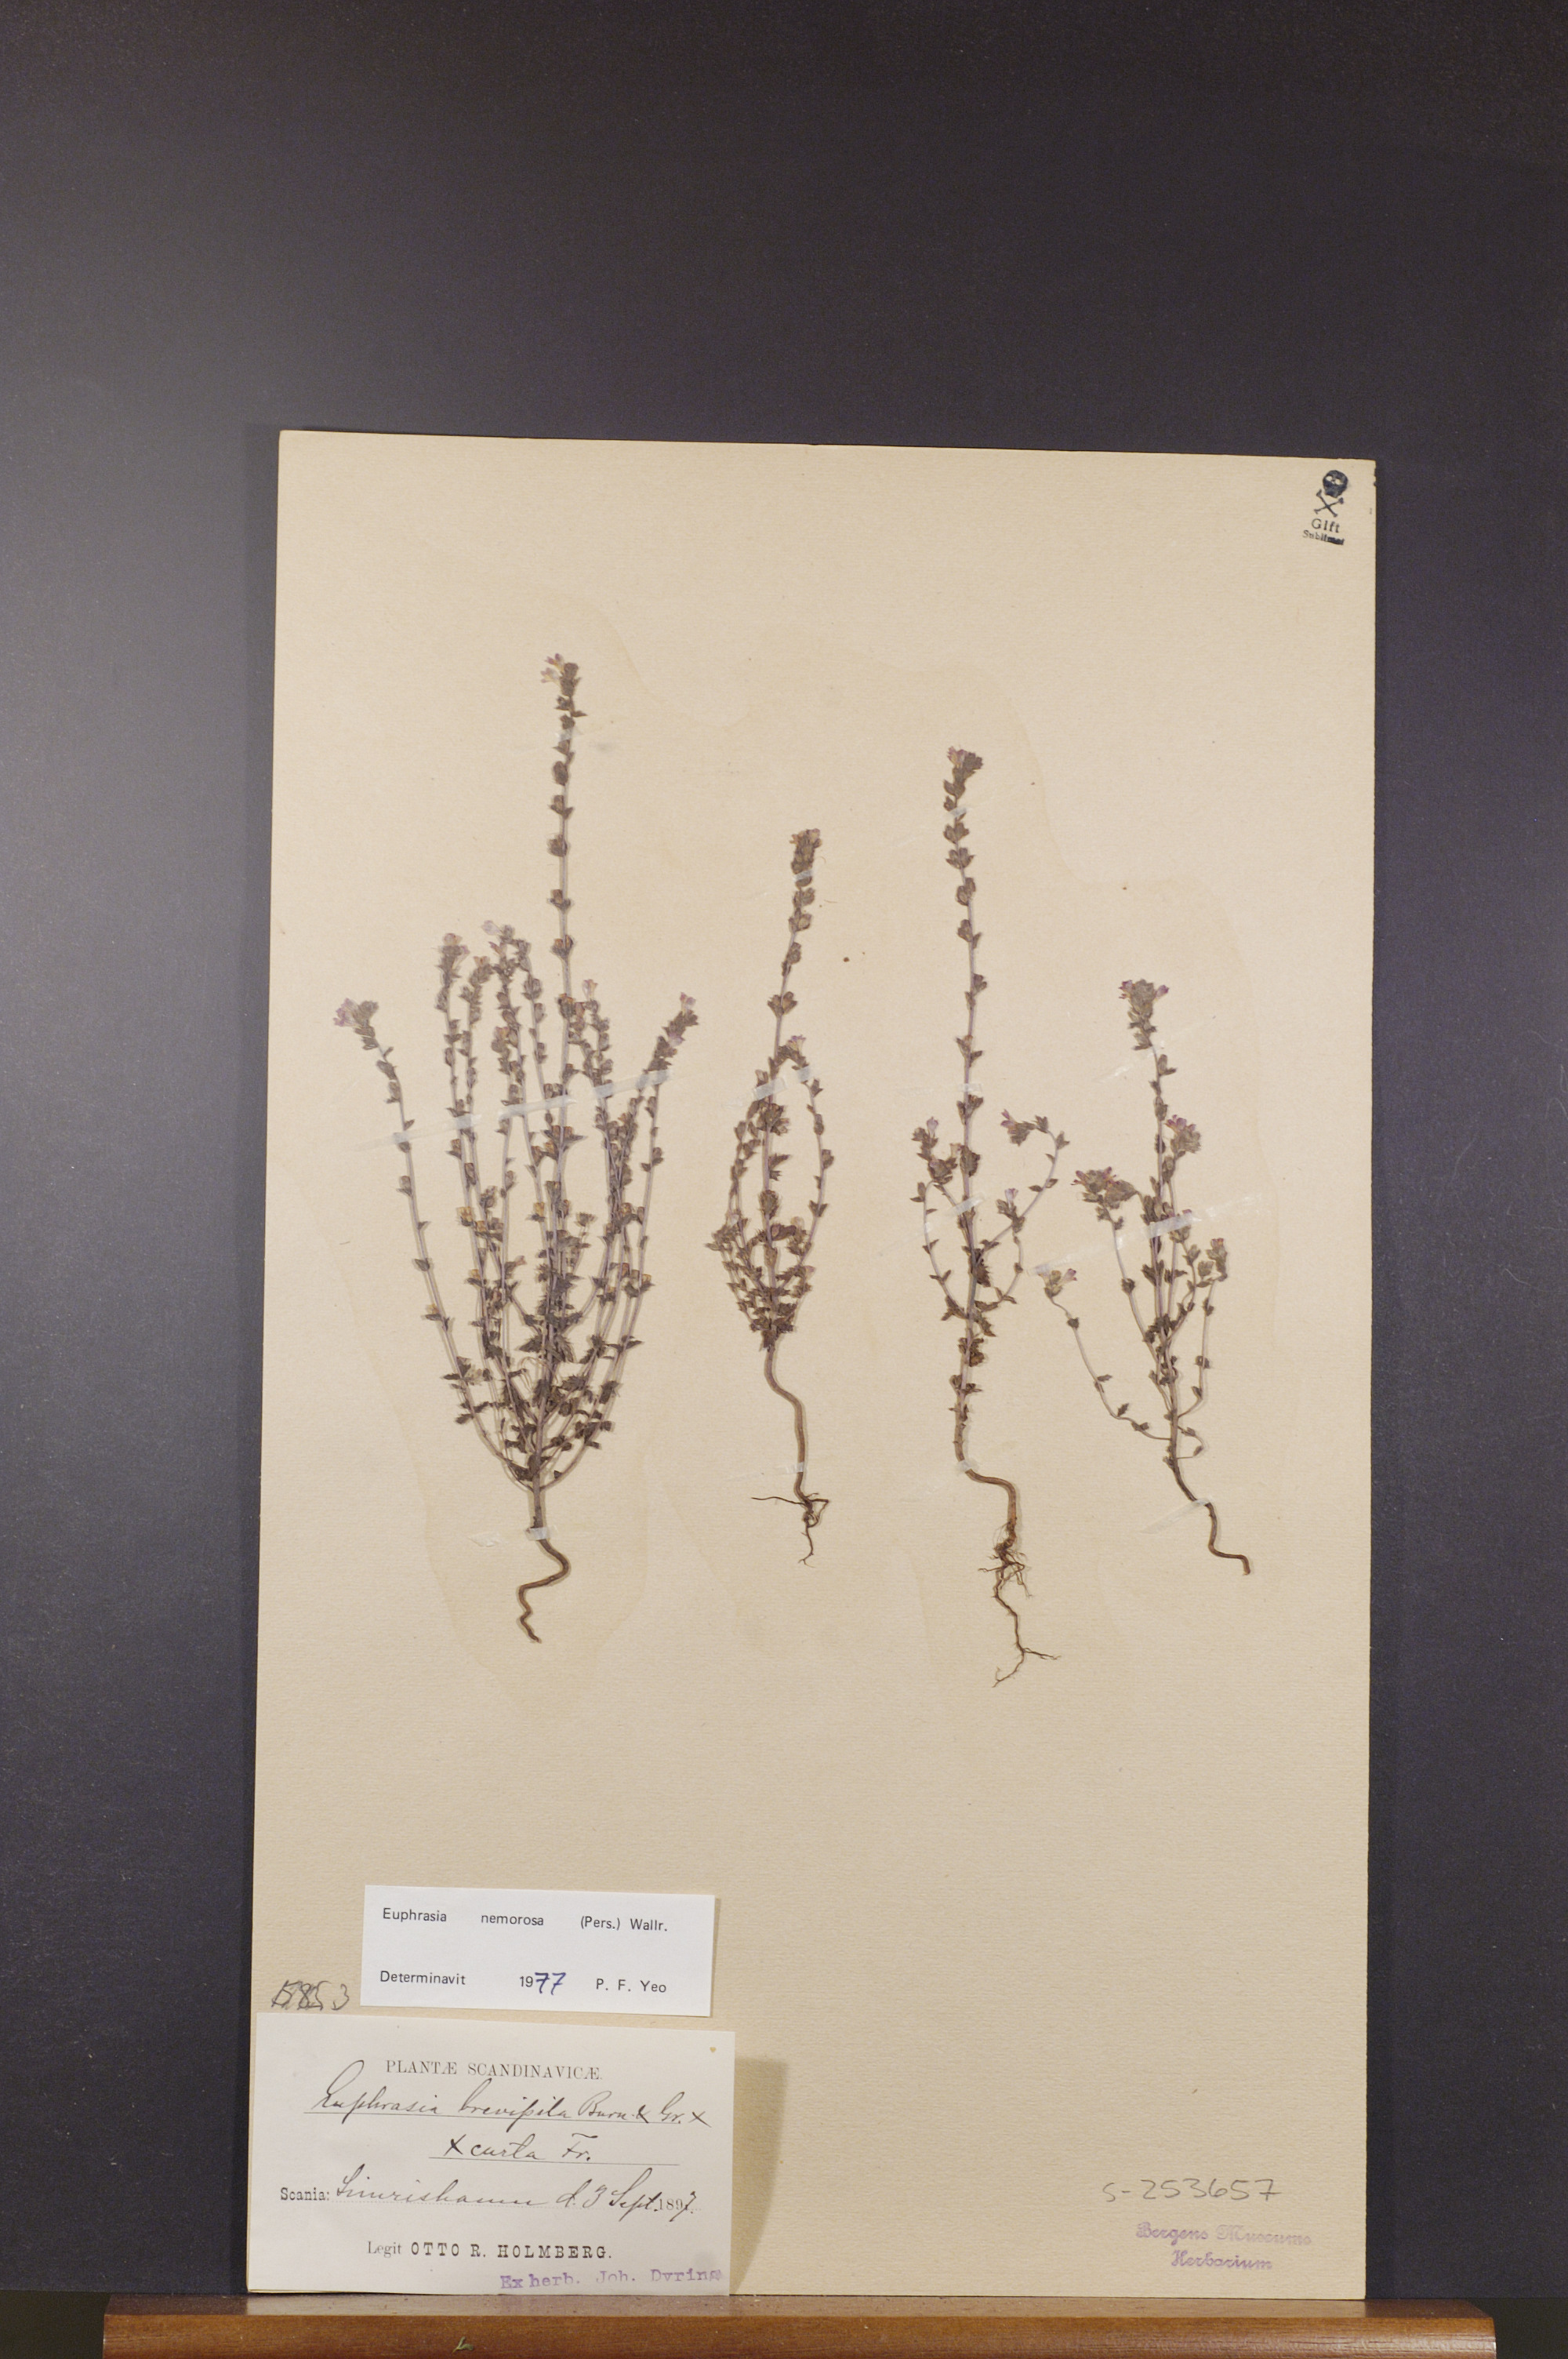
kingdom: Plantae
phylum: Tracheophyta
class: Magnoliopsida
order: Lamiales
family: Orobanchaceae
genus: Euphrasia
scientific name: Euphrasia nemorosa
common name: Common eyebright
